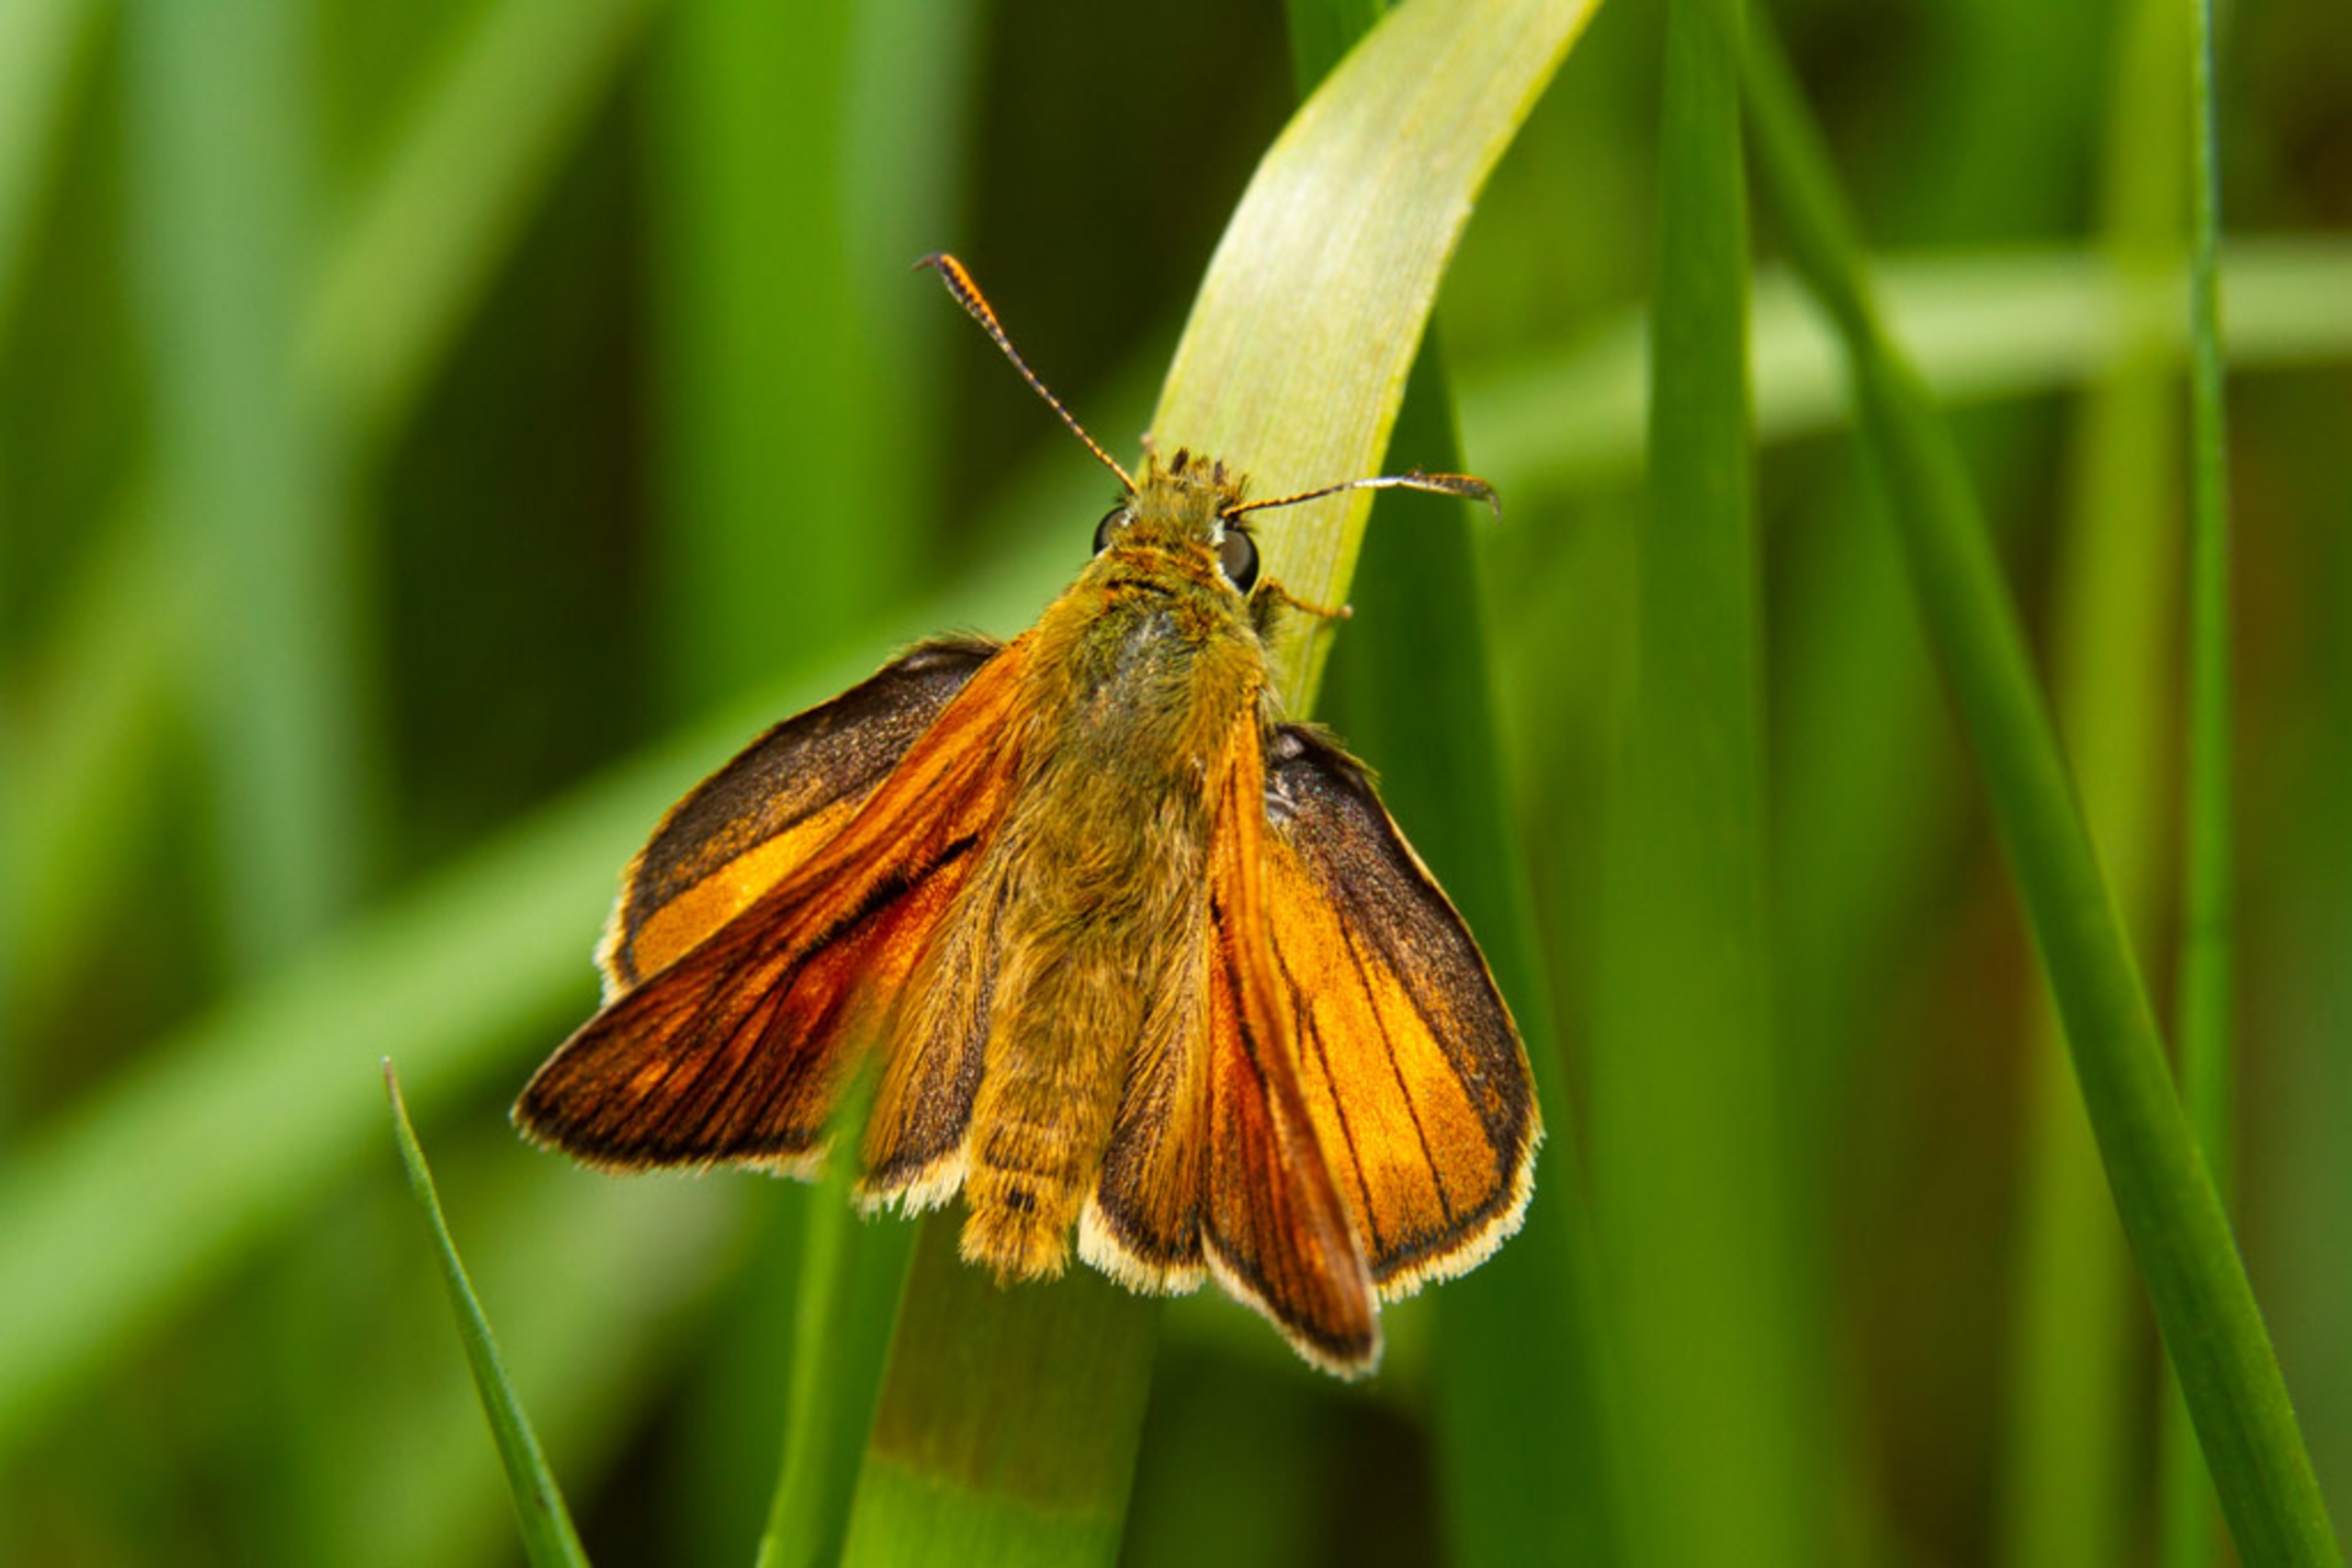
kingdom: Animalia
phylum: Arthropoda
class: Insecta
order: Lepidoptera
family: Hesperiidae
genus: Ochlodes
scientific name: Ochlodes venata
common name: Stor bredpande
